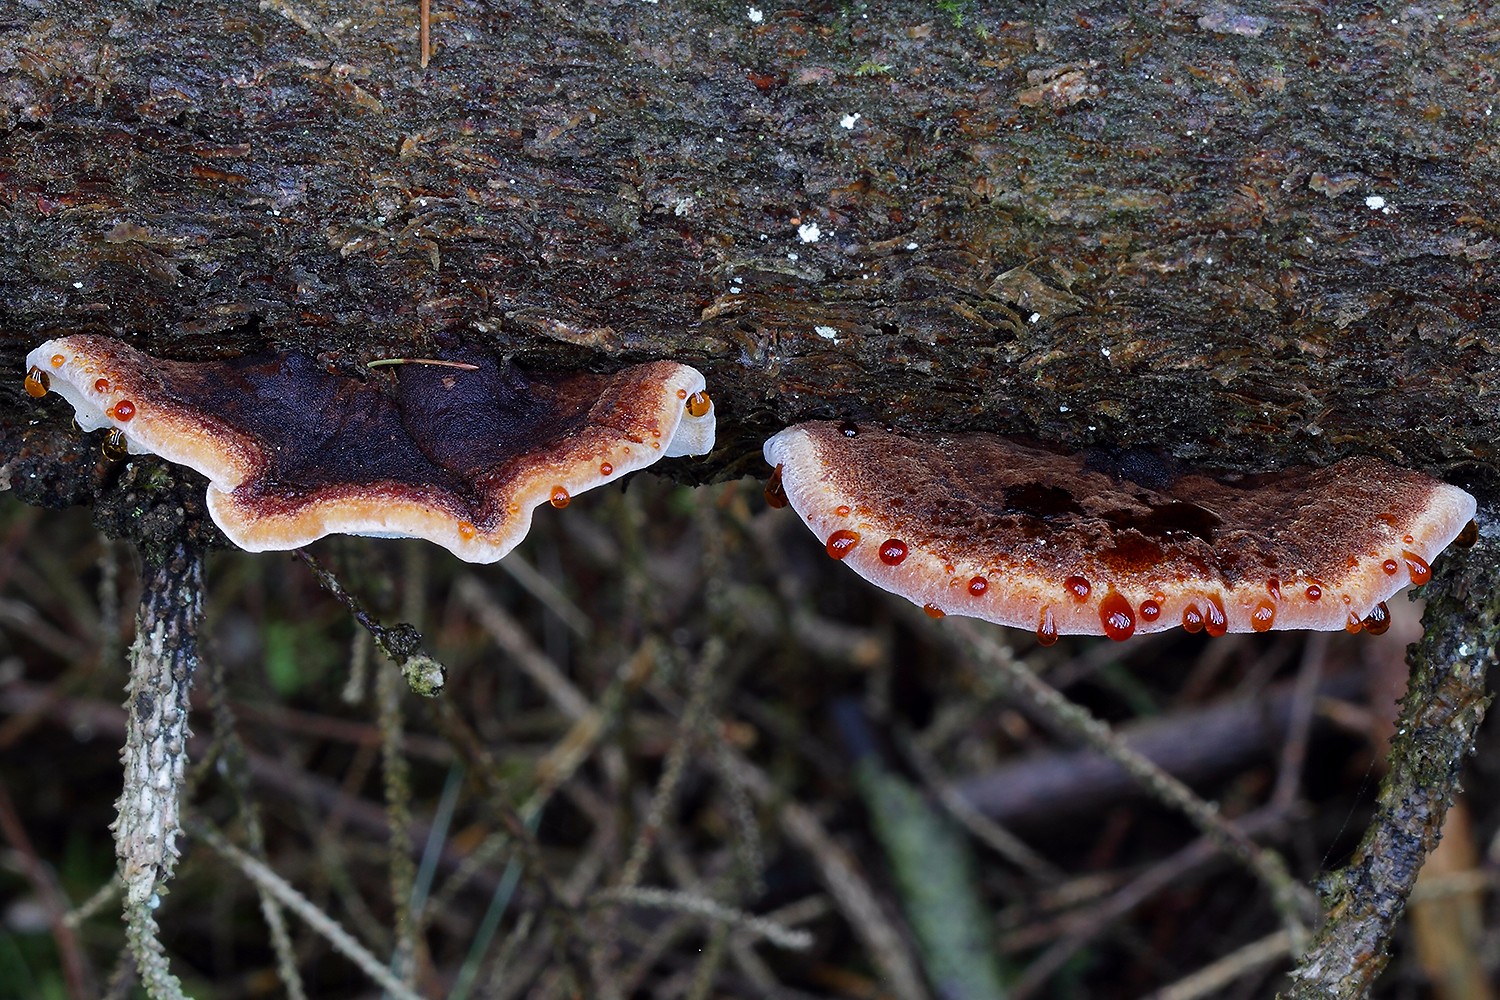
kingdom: Fungi
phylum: Basidiomycota
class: Agaricomycetes
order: Polyporales
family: Ischnodermataceae
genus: Ischnoderma
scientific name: Ischnoderma benzoinum
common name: gran-tjæreporesvamp
